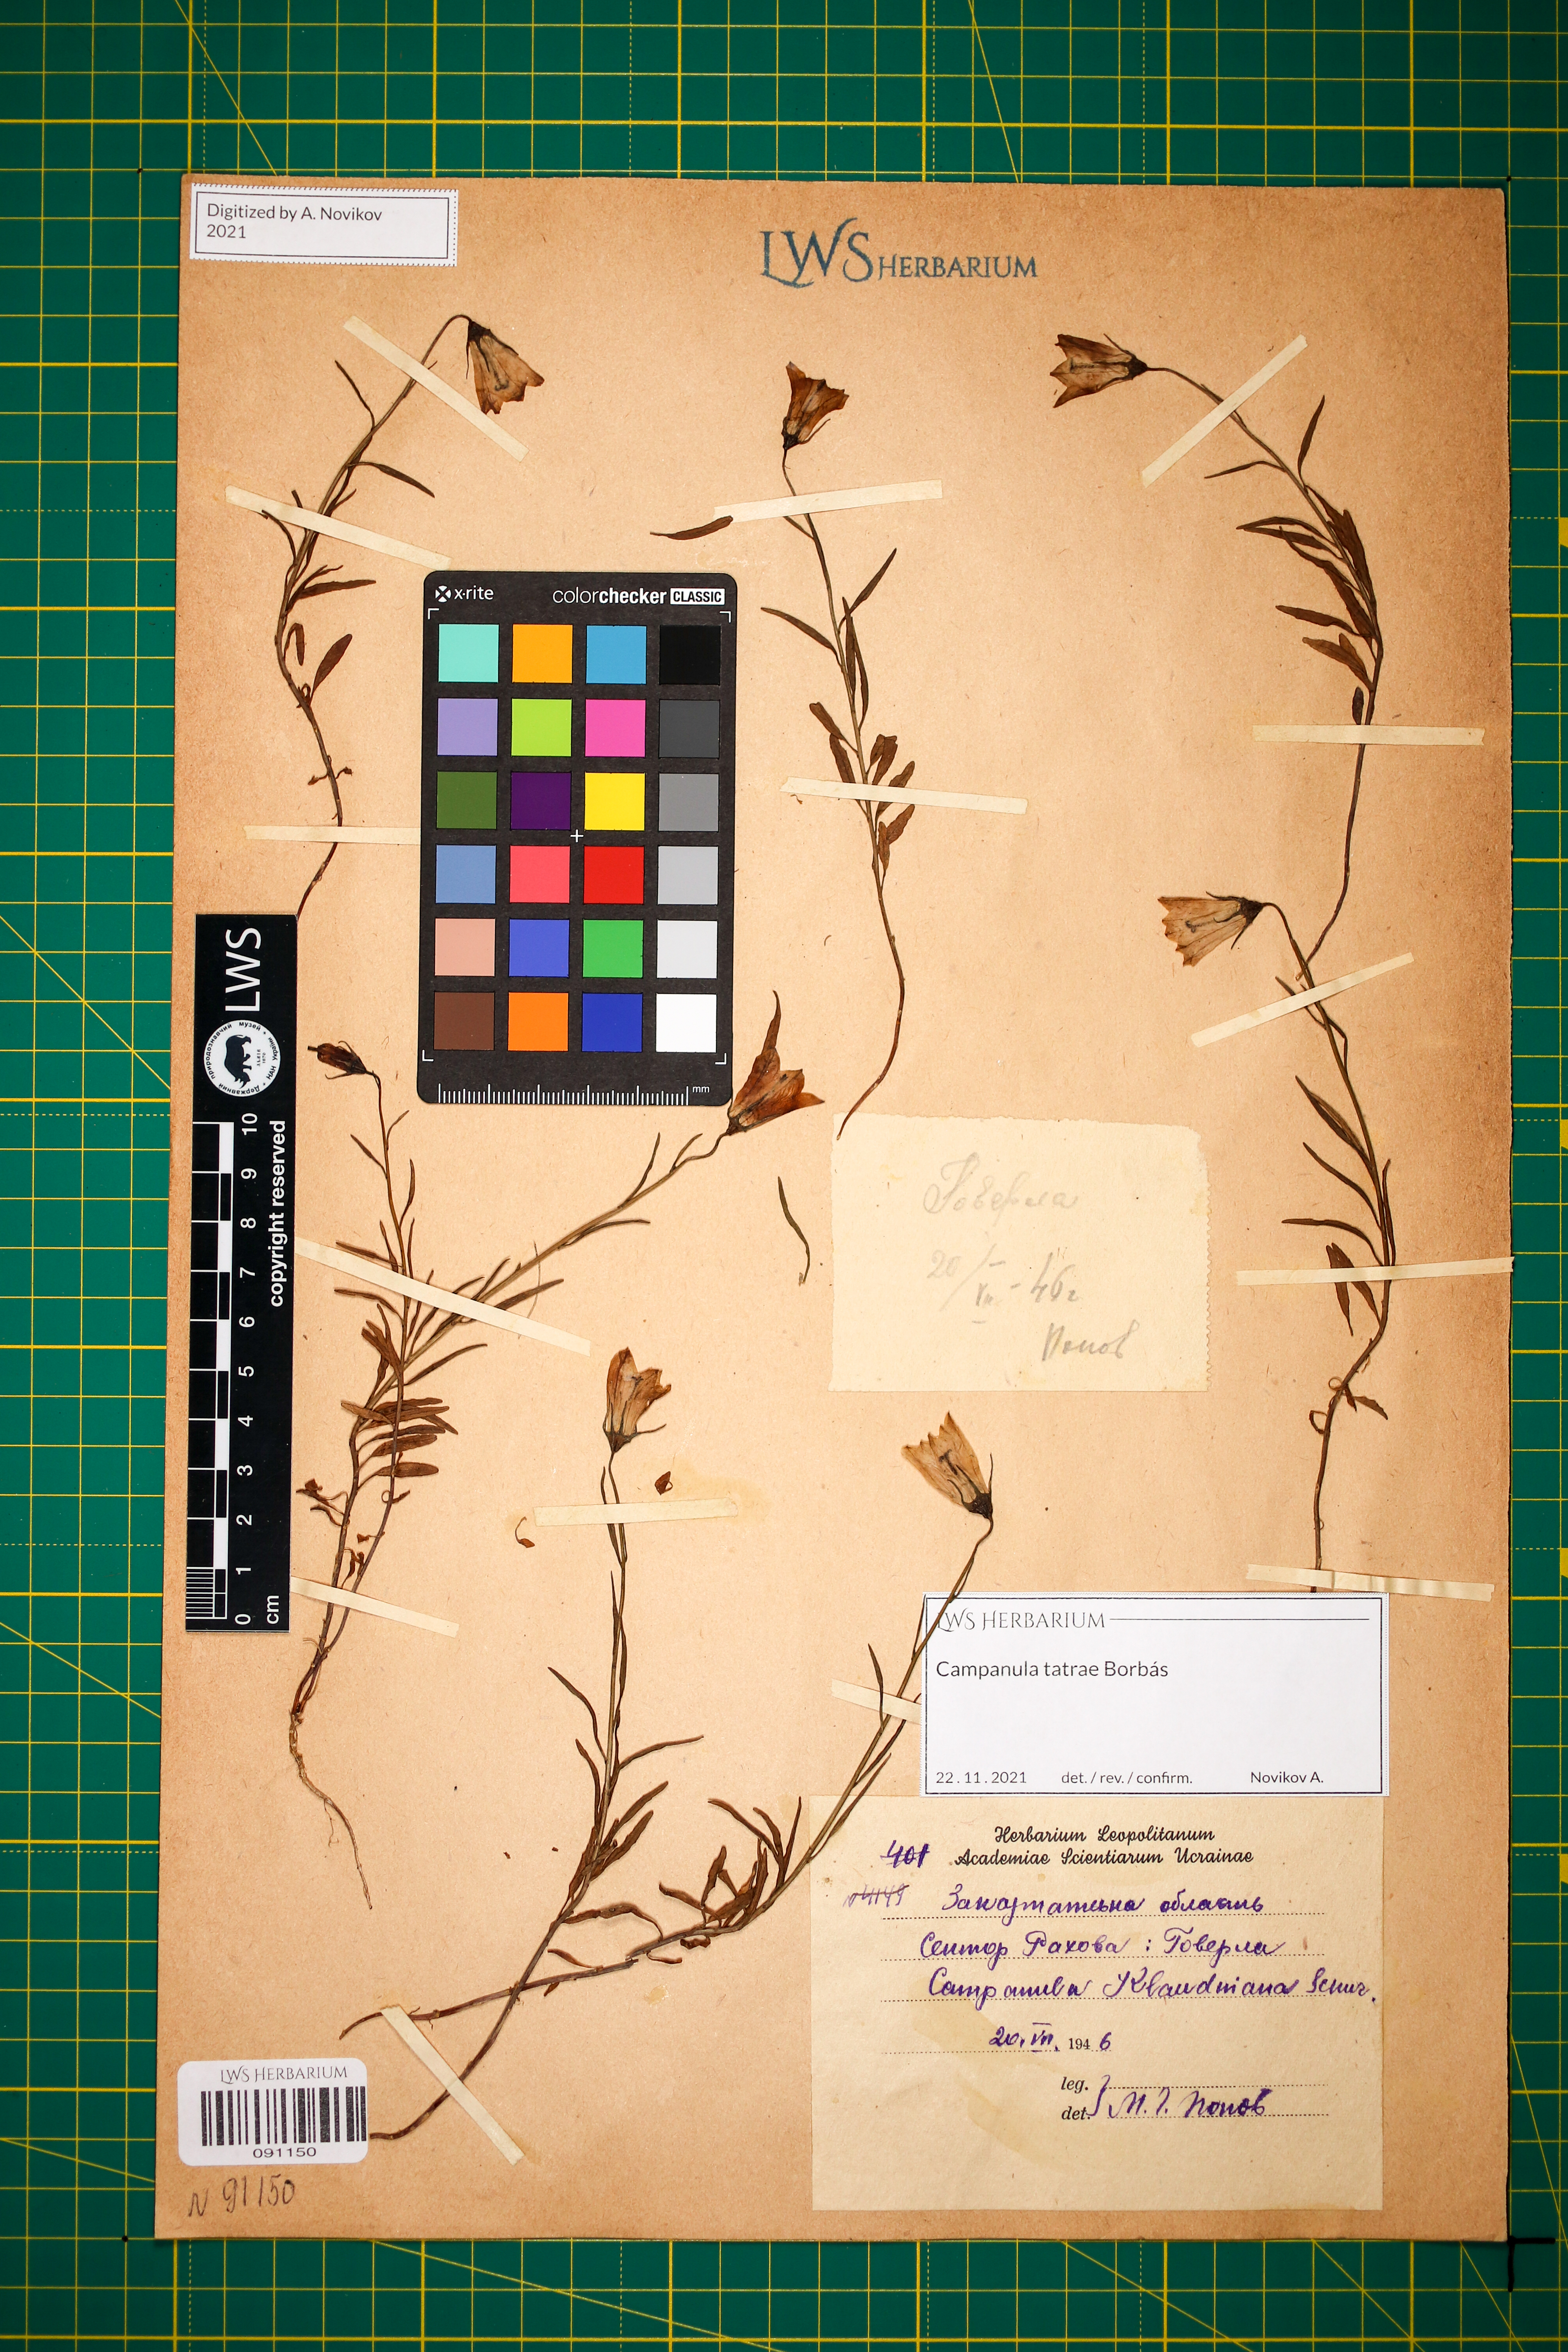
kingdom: Plantae
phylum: Tracheophyta
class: Magnoliopsida
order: Asterales
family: Campanulaceae
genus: Campanula
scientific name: Campanula kladniana
